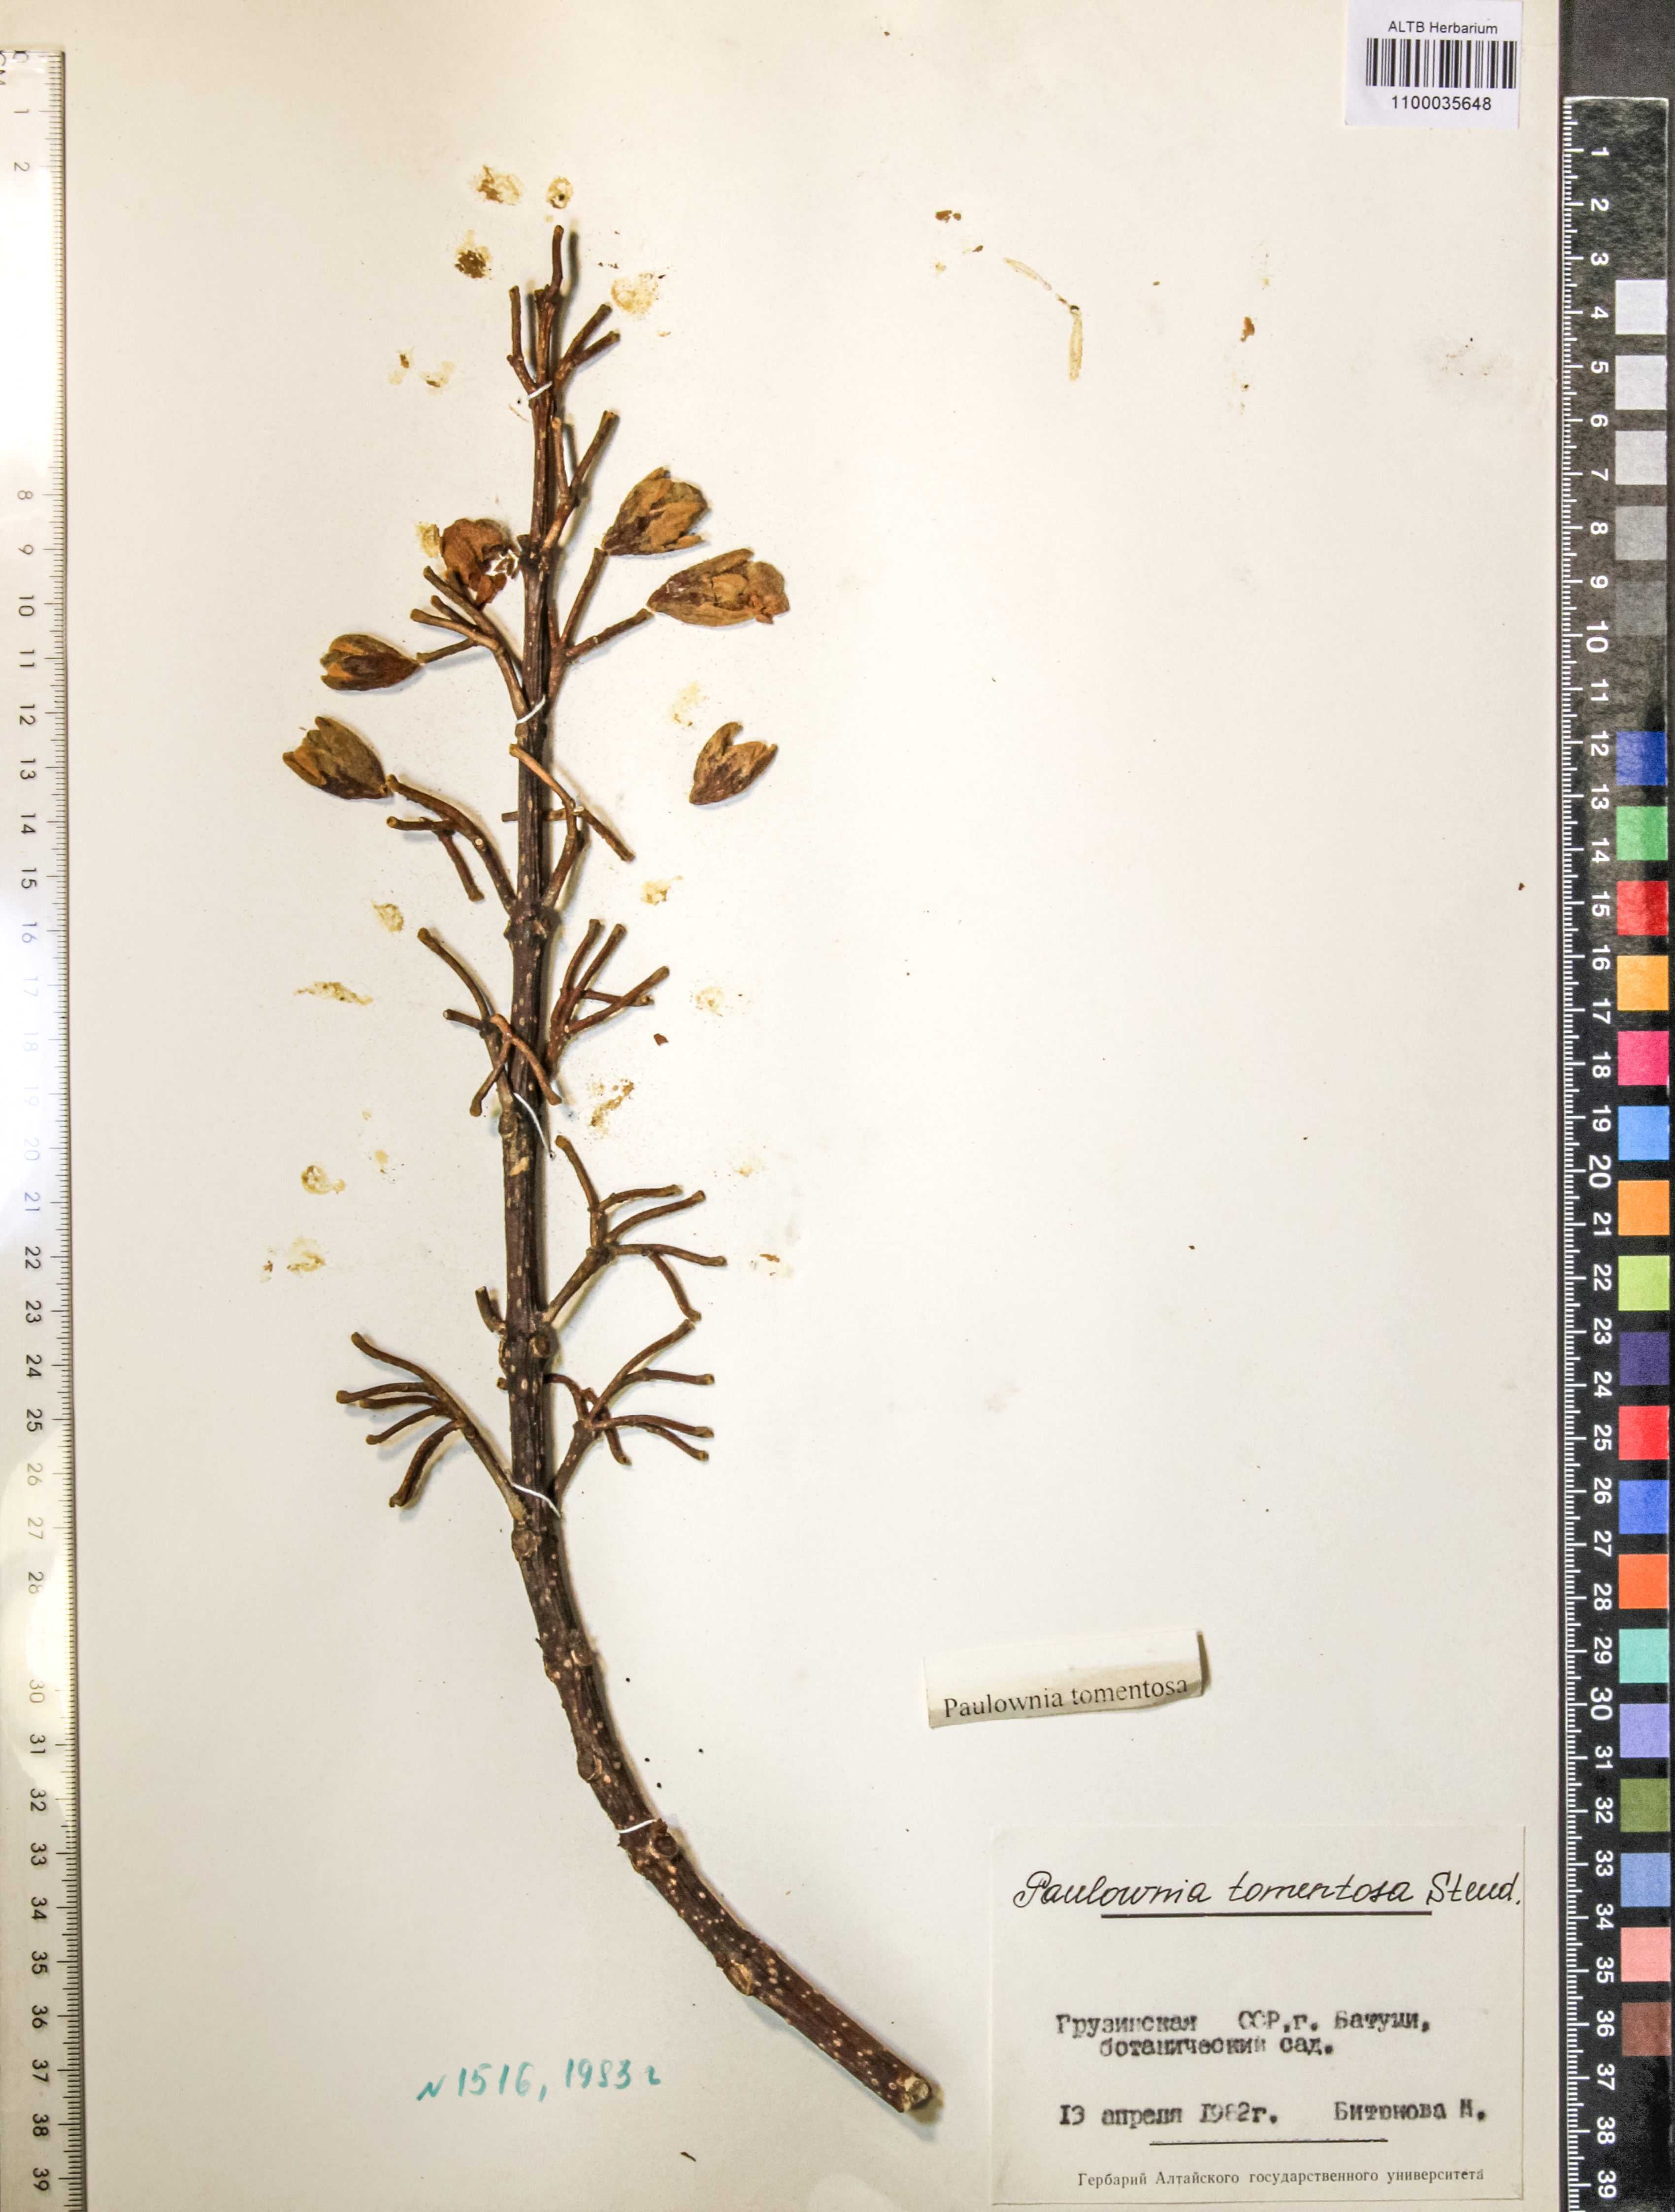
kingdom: Plantae
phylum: Tracheophyta
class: Magnoliopsida
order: Lamiales
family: Paulowniaceae
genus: Paulownia
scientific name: Paulownia tomentosa
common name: Foxglove-tree
